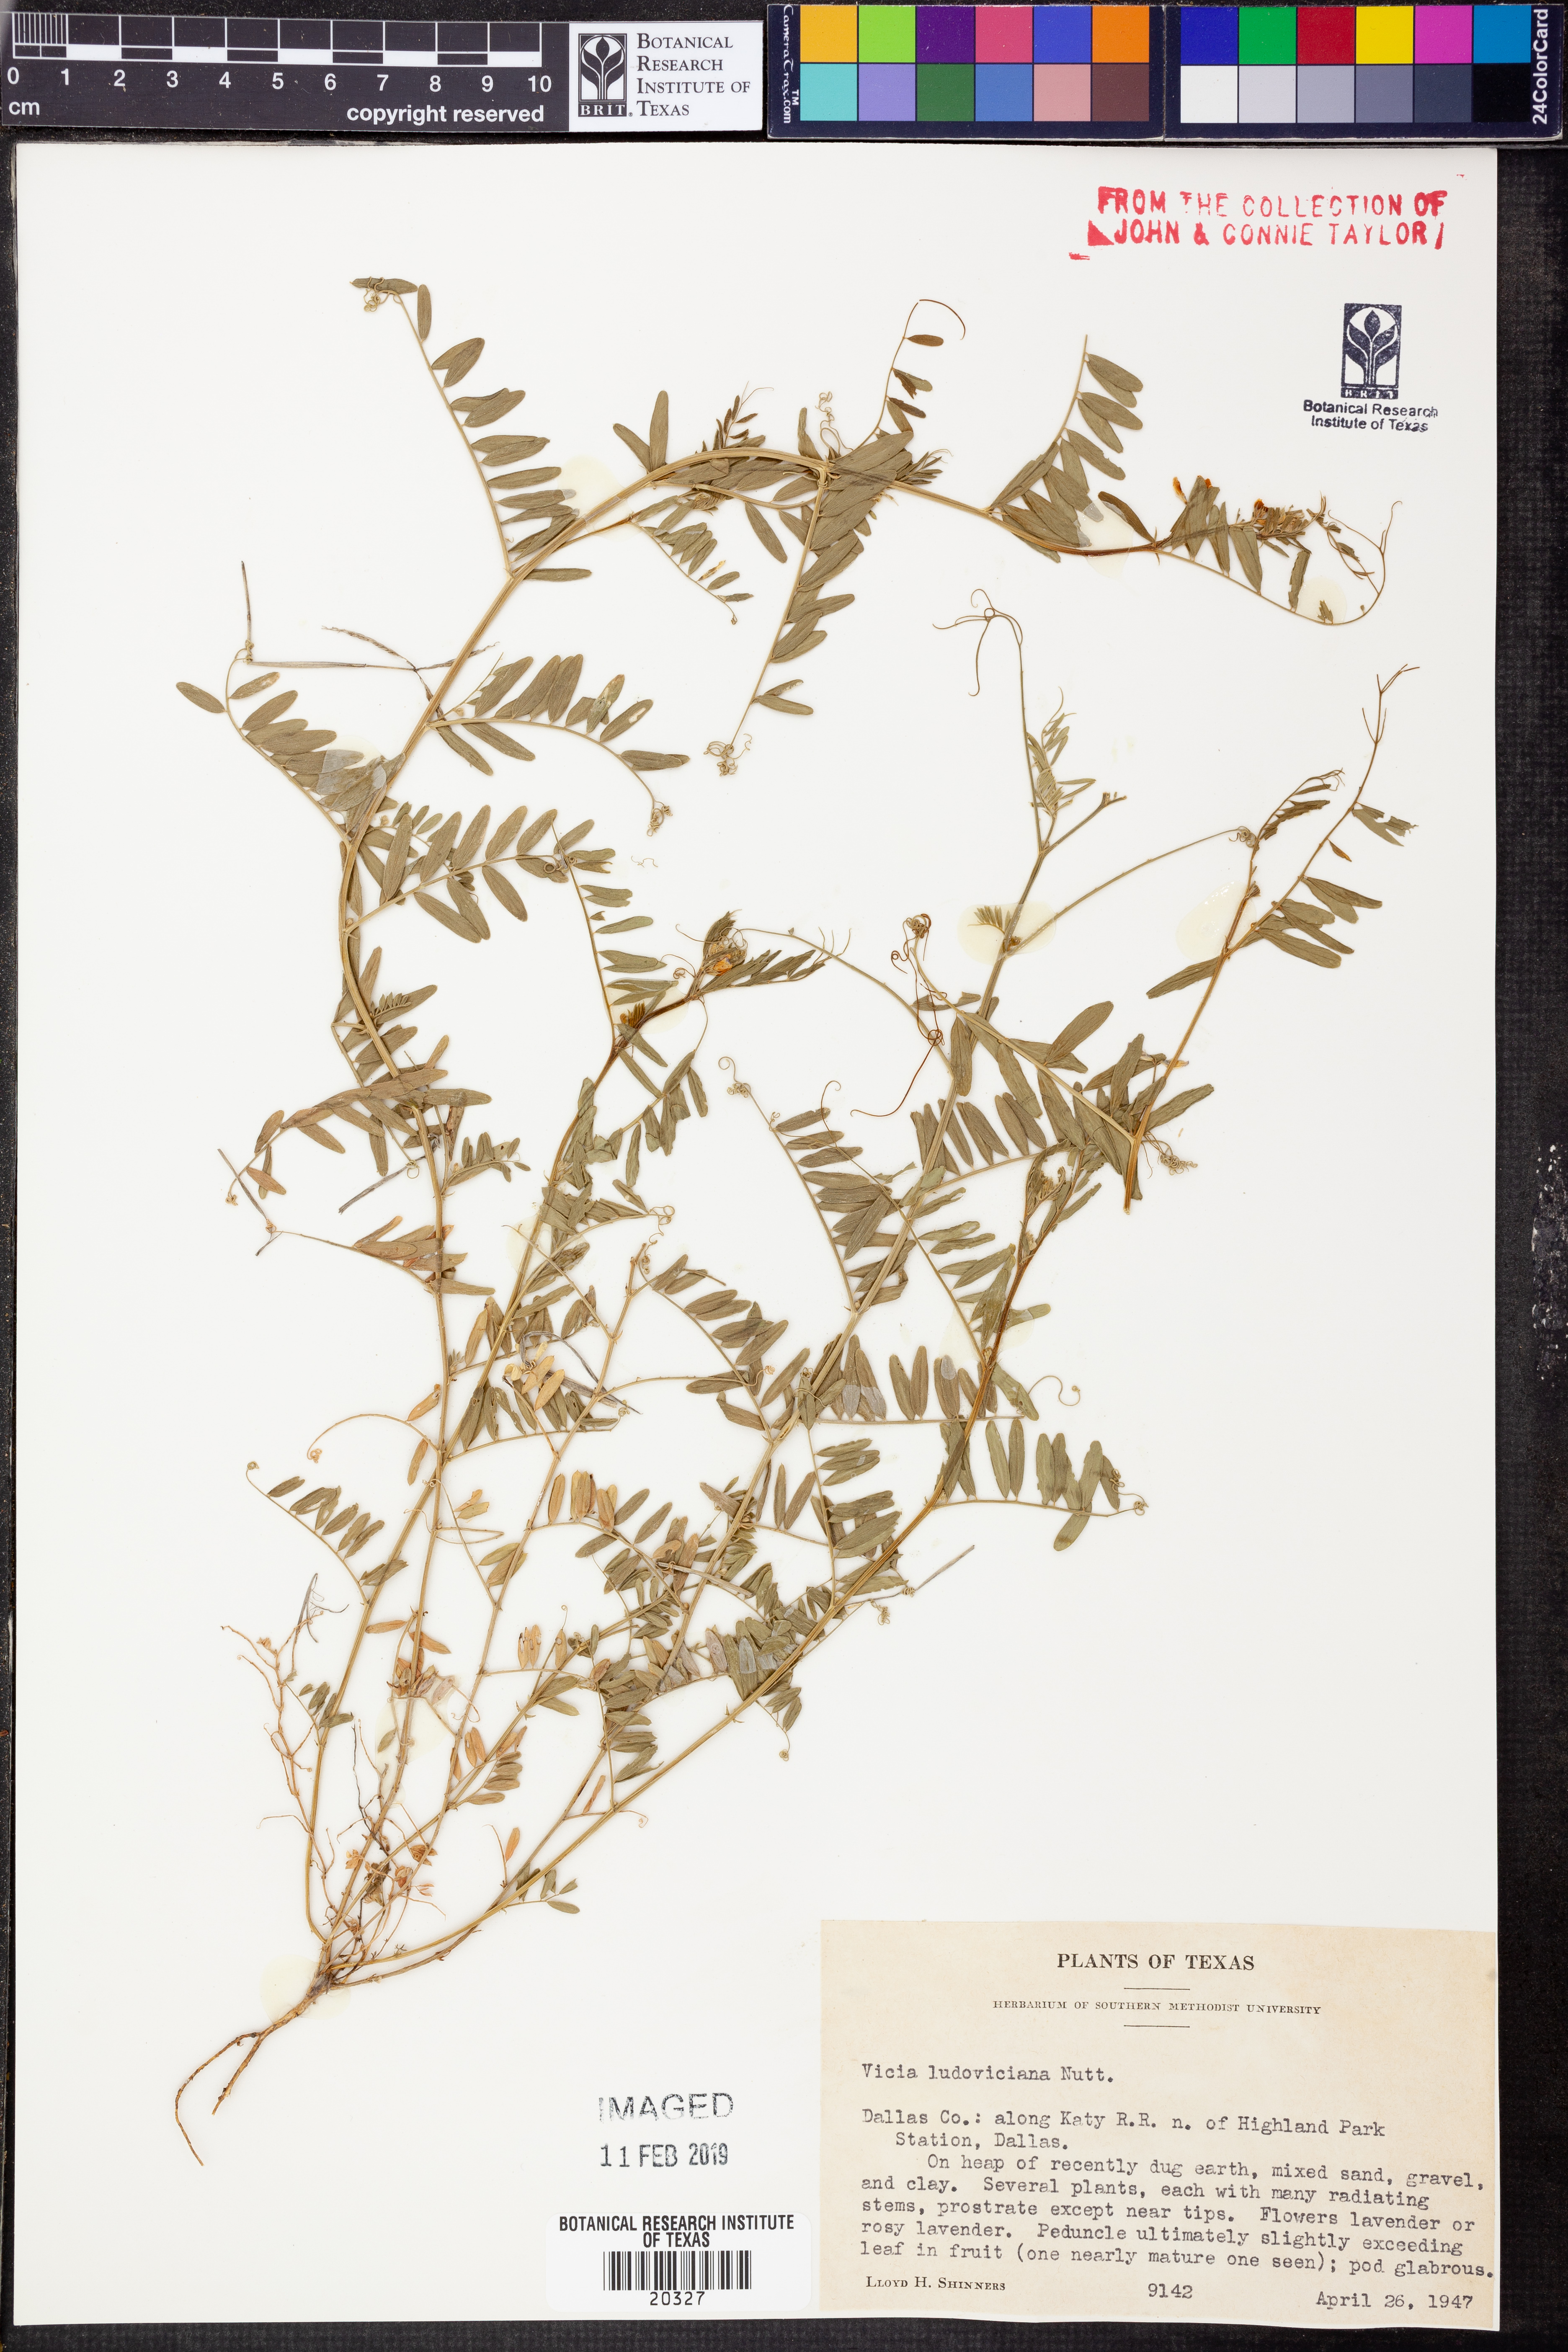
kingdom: Plantae
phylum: Tracheophyta
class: Magnoliopsida
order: Fabales
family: Fabaceae
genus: Vicia
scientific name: Vicia ludoviciana
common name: Louisiana vetch
